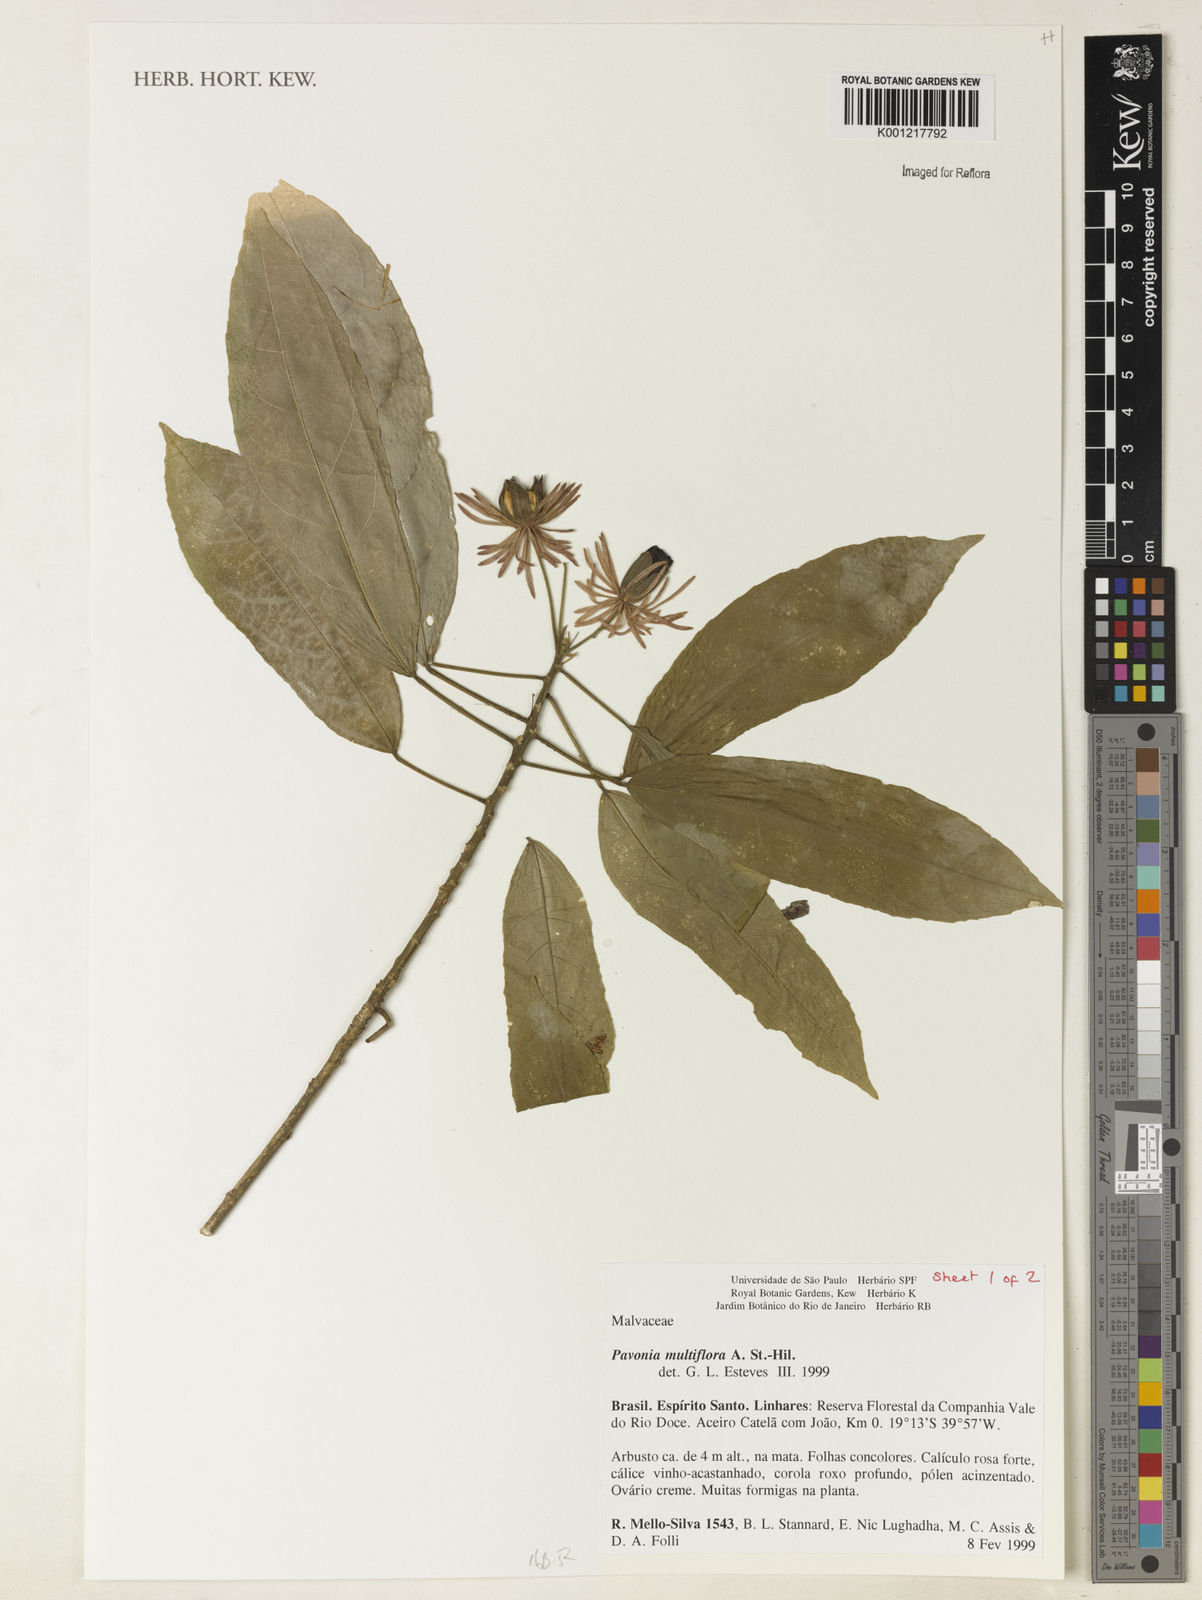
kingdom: Plantae
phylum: Tracheophyta
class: Magnoliopsida
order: Malvales
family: Malvaceae
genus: Pavonia
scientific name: Pavonia multiflora
